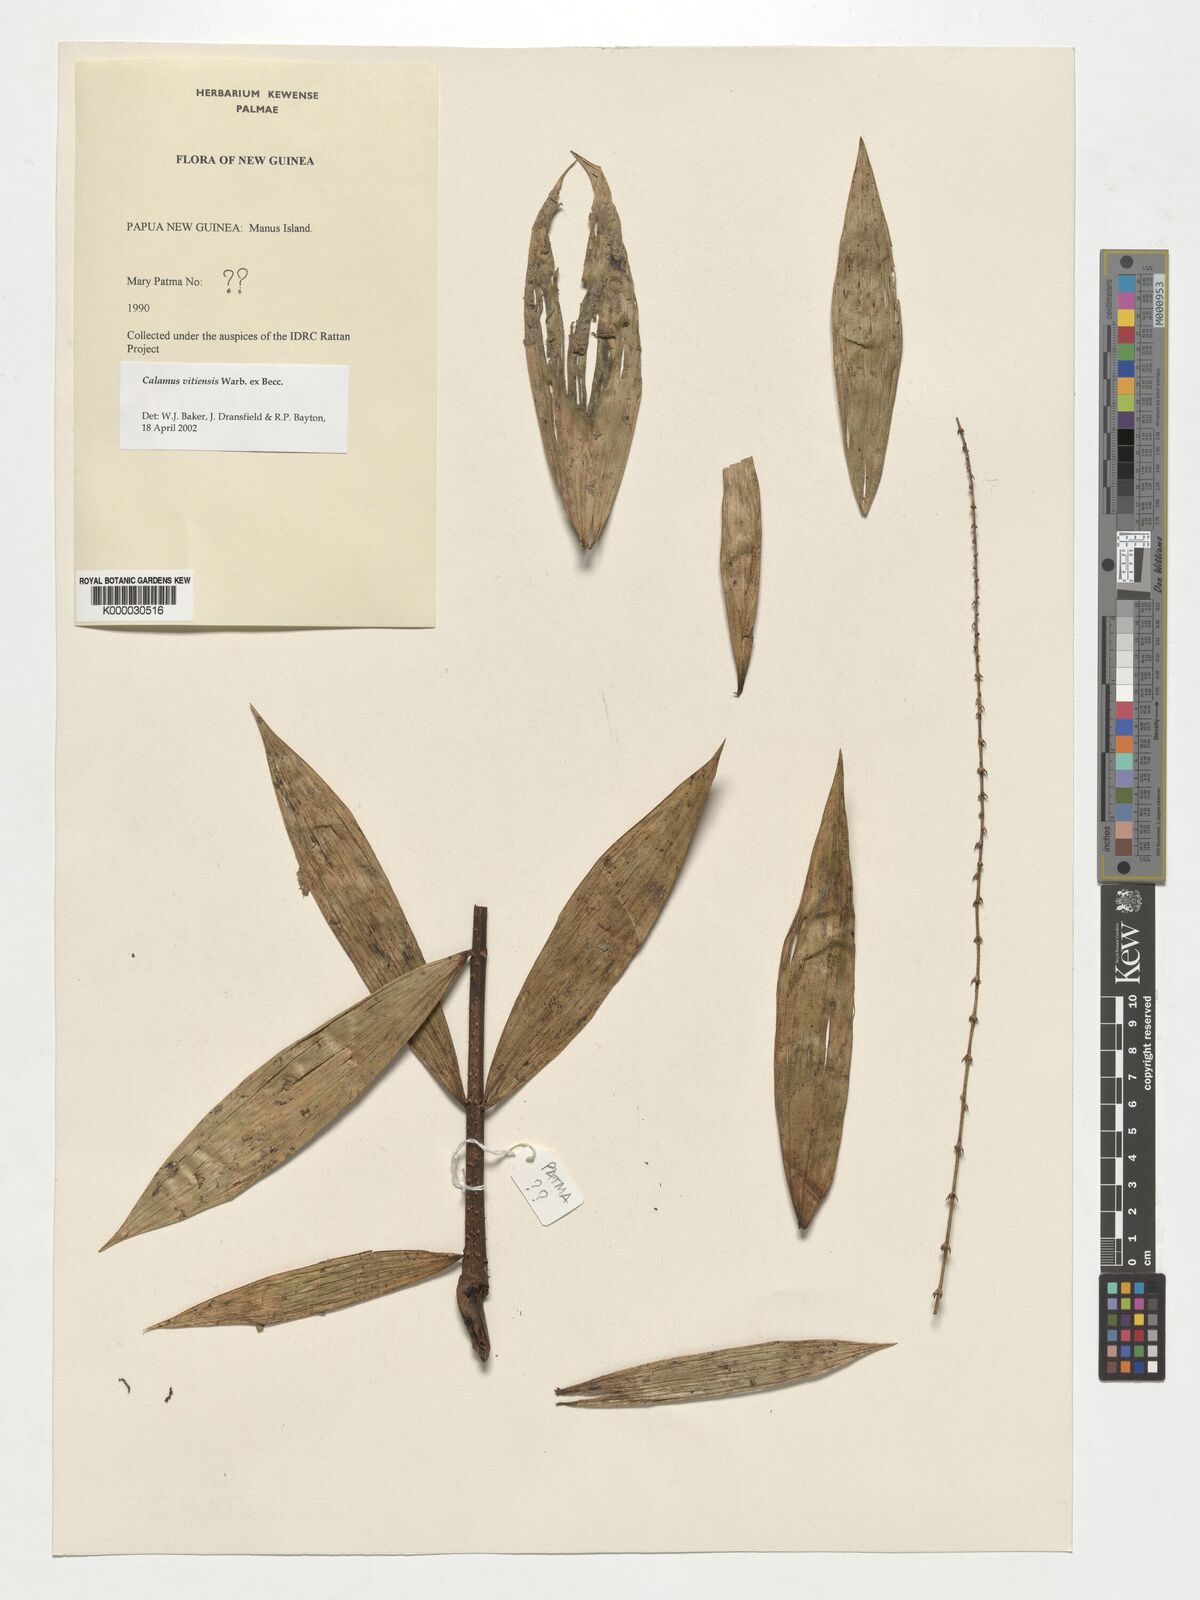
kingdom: Plantae
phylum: Tracheophyta
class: Liliopsida
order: Arecales
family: Arecaceae
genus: Calamus
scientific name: Calamus vitiensis
